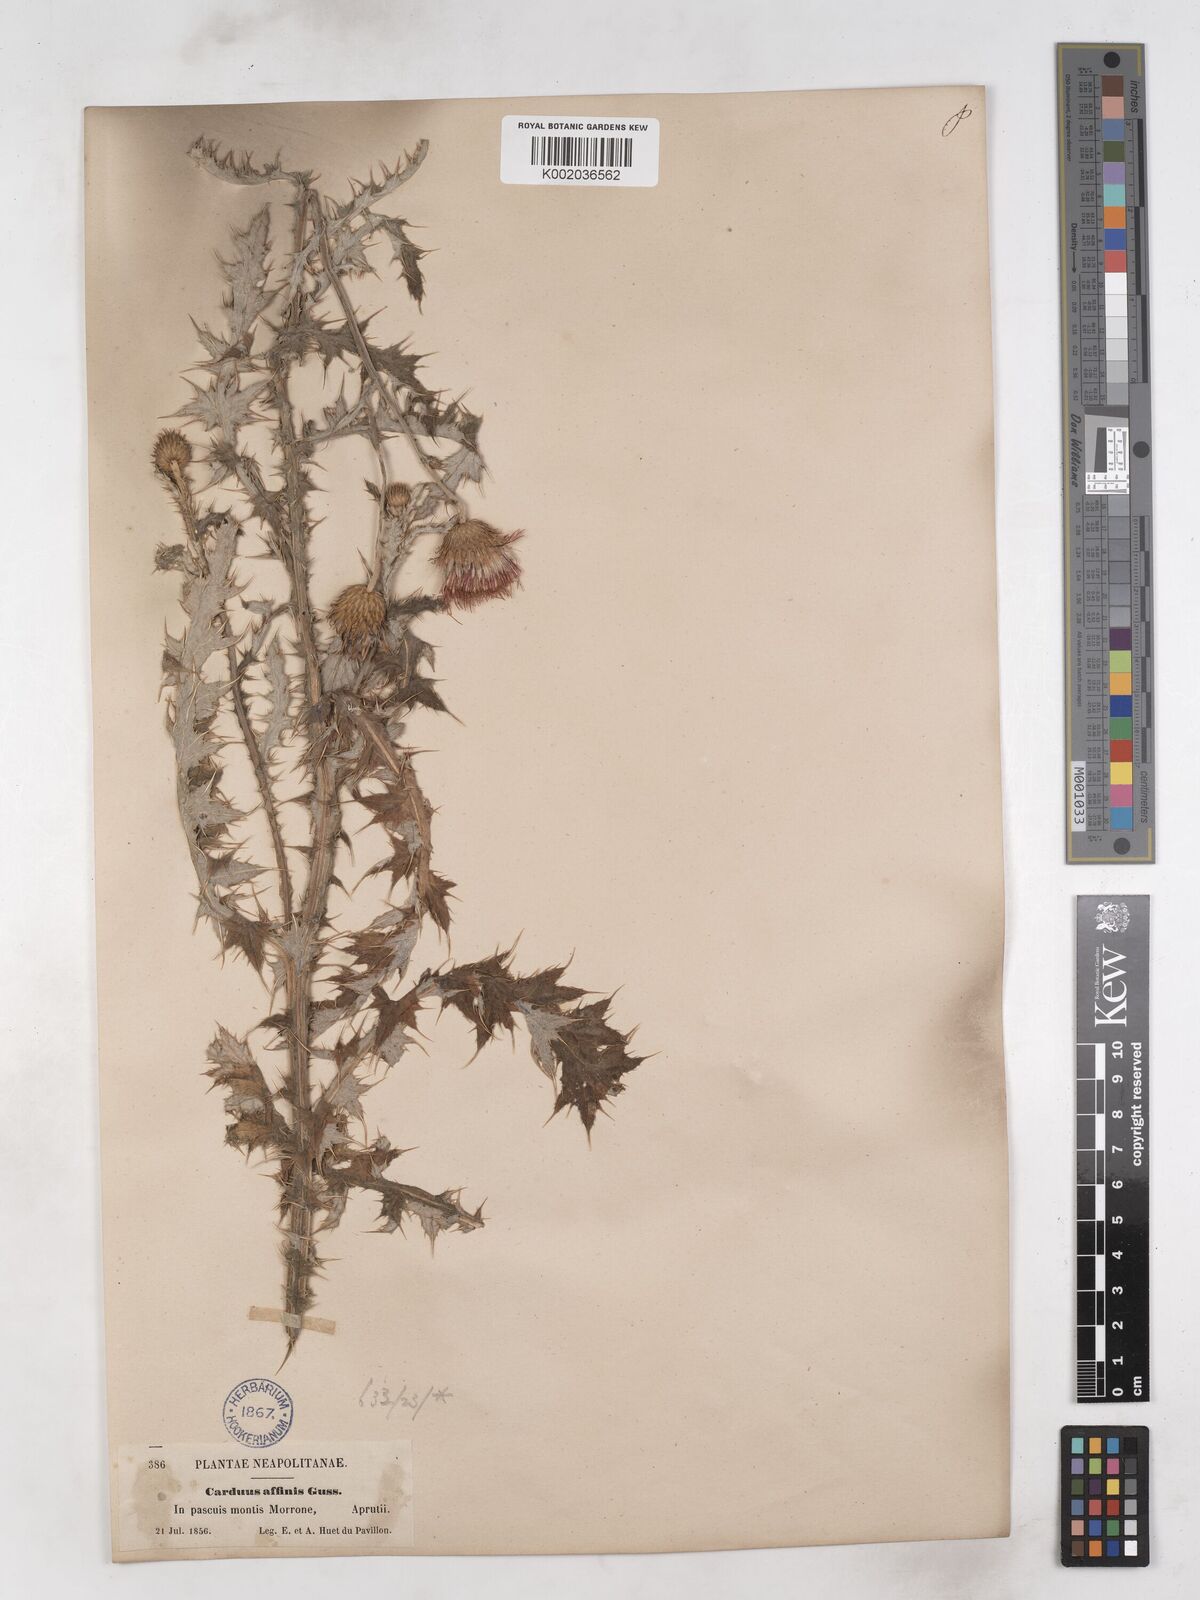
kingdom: Plantae
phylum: Tracheophyta
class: Magnoliopsida
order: Asterales
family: Asteraceae
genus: Carduus
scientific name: Carduus affinis
